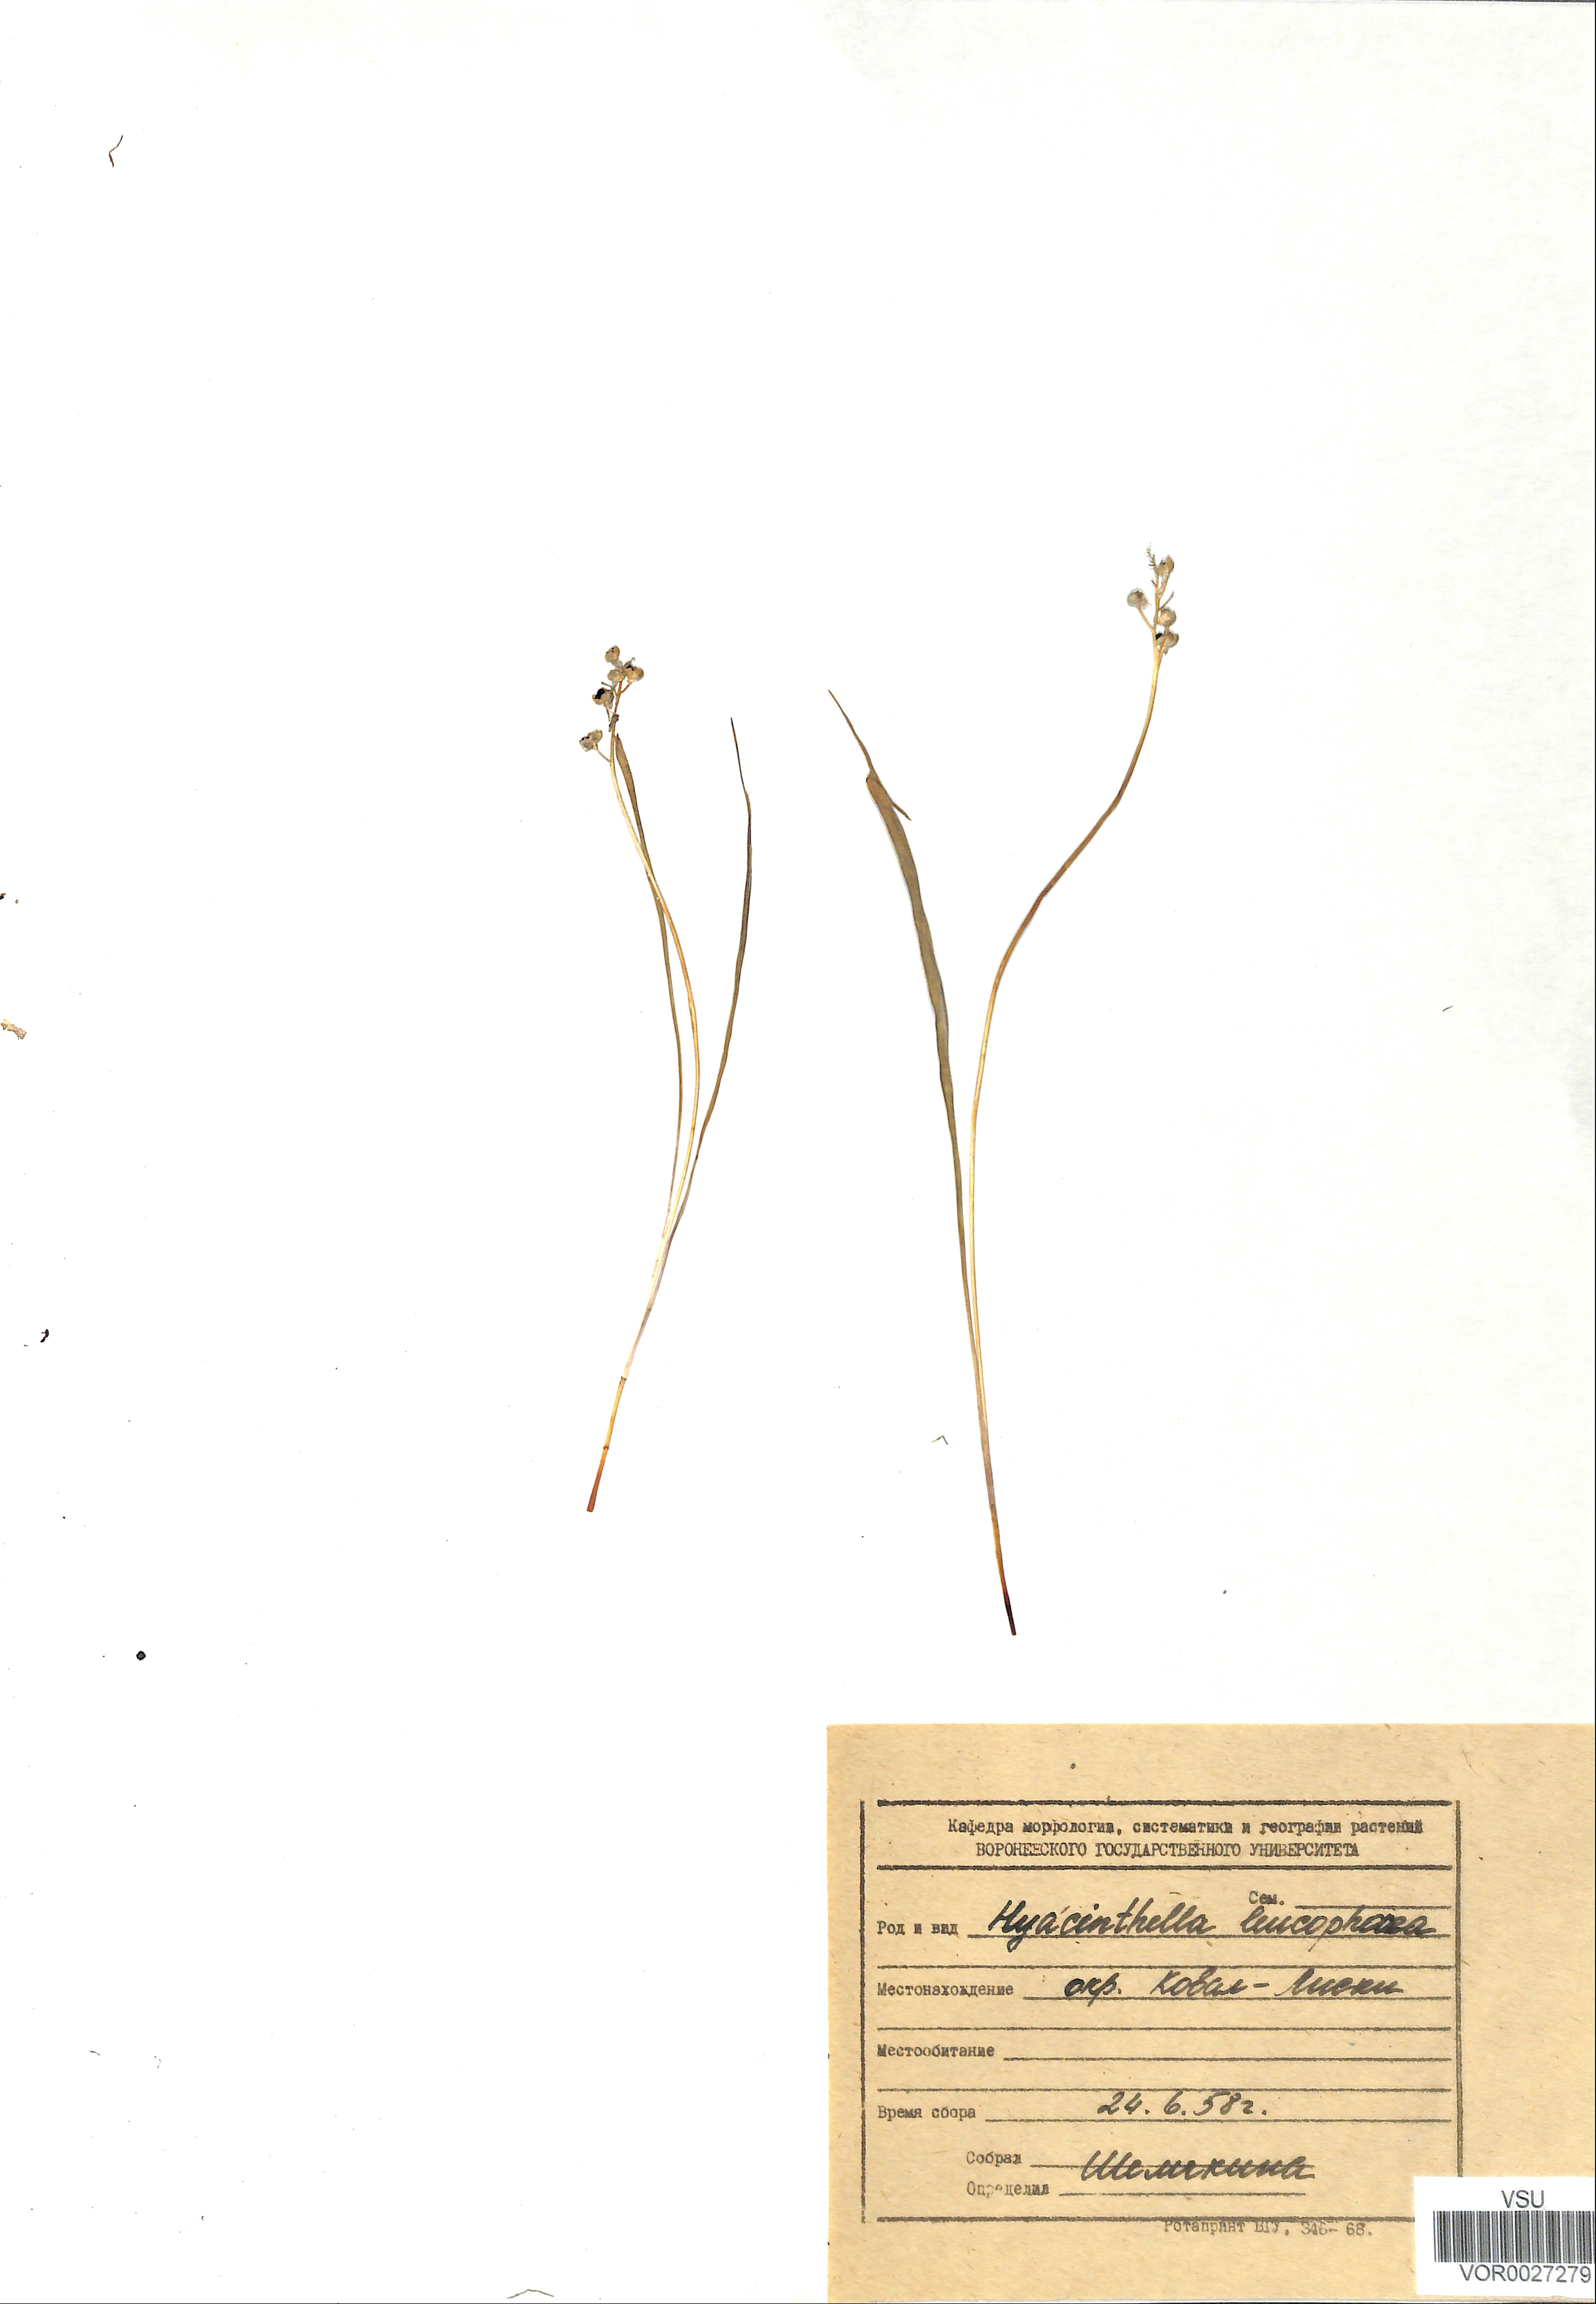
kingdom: Plantae
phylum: Tracheophyta
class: Liliopsida
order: Asparagales
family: Asparagaceae
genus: Hyacinthella
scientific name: Hyacinthella leucophaea
